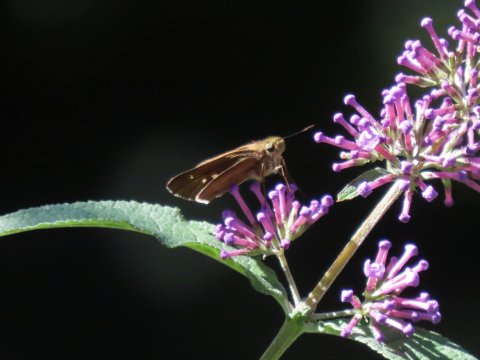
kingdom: Animalia
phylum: Arthropoda
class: Insecta
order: Lepidoptera
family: Hesperiidae
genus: Panoquina
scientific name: Panoquina ocola
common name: Ocola Skipper
